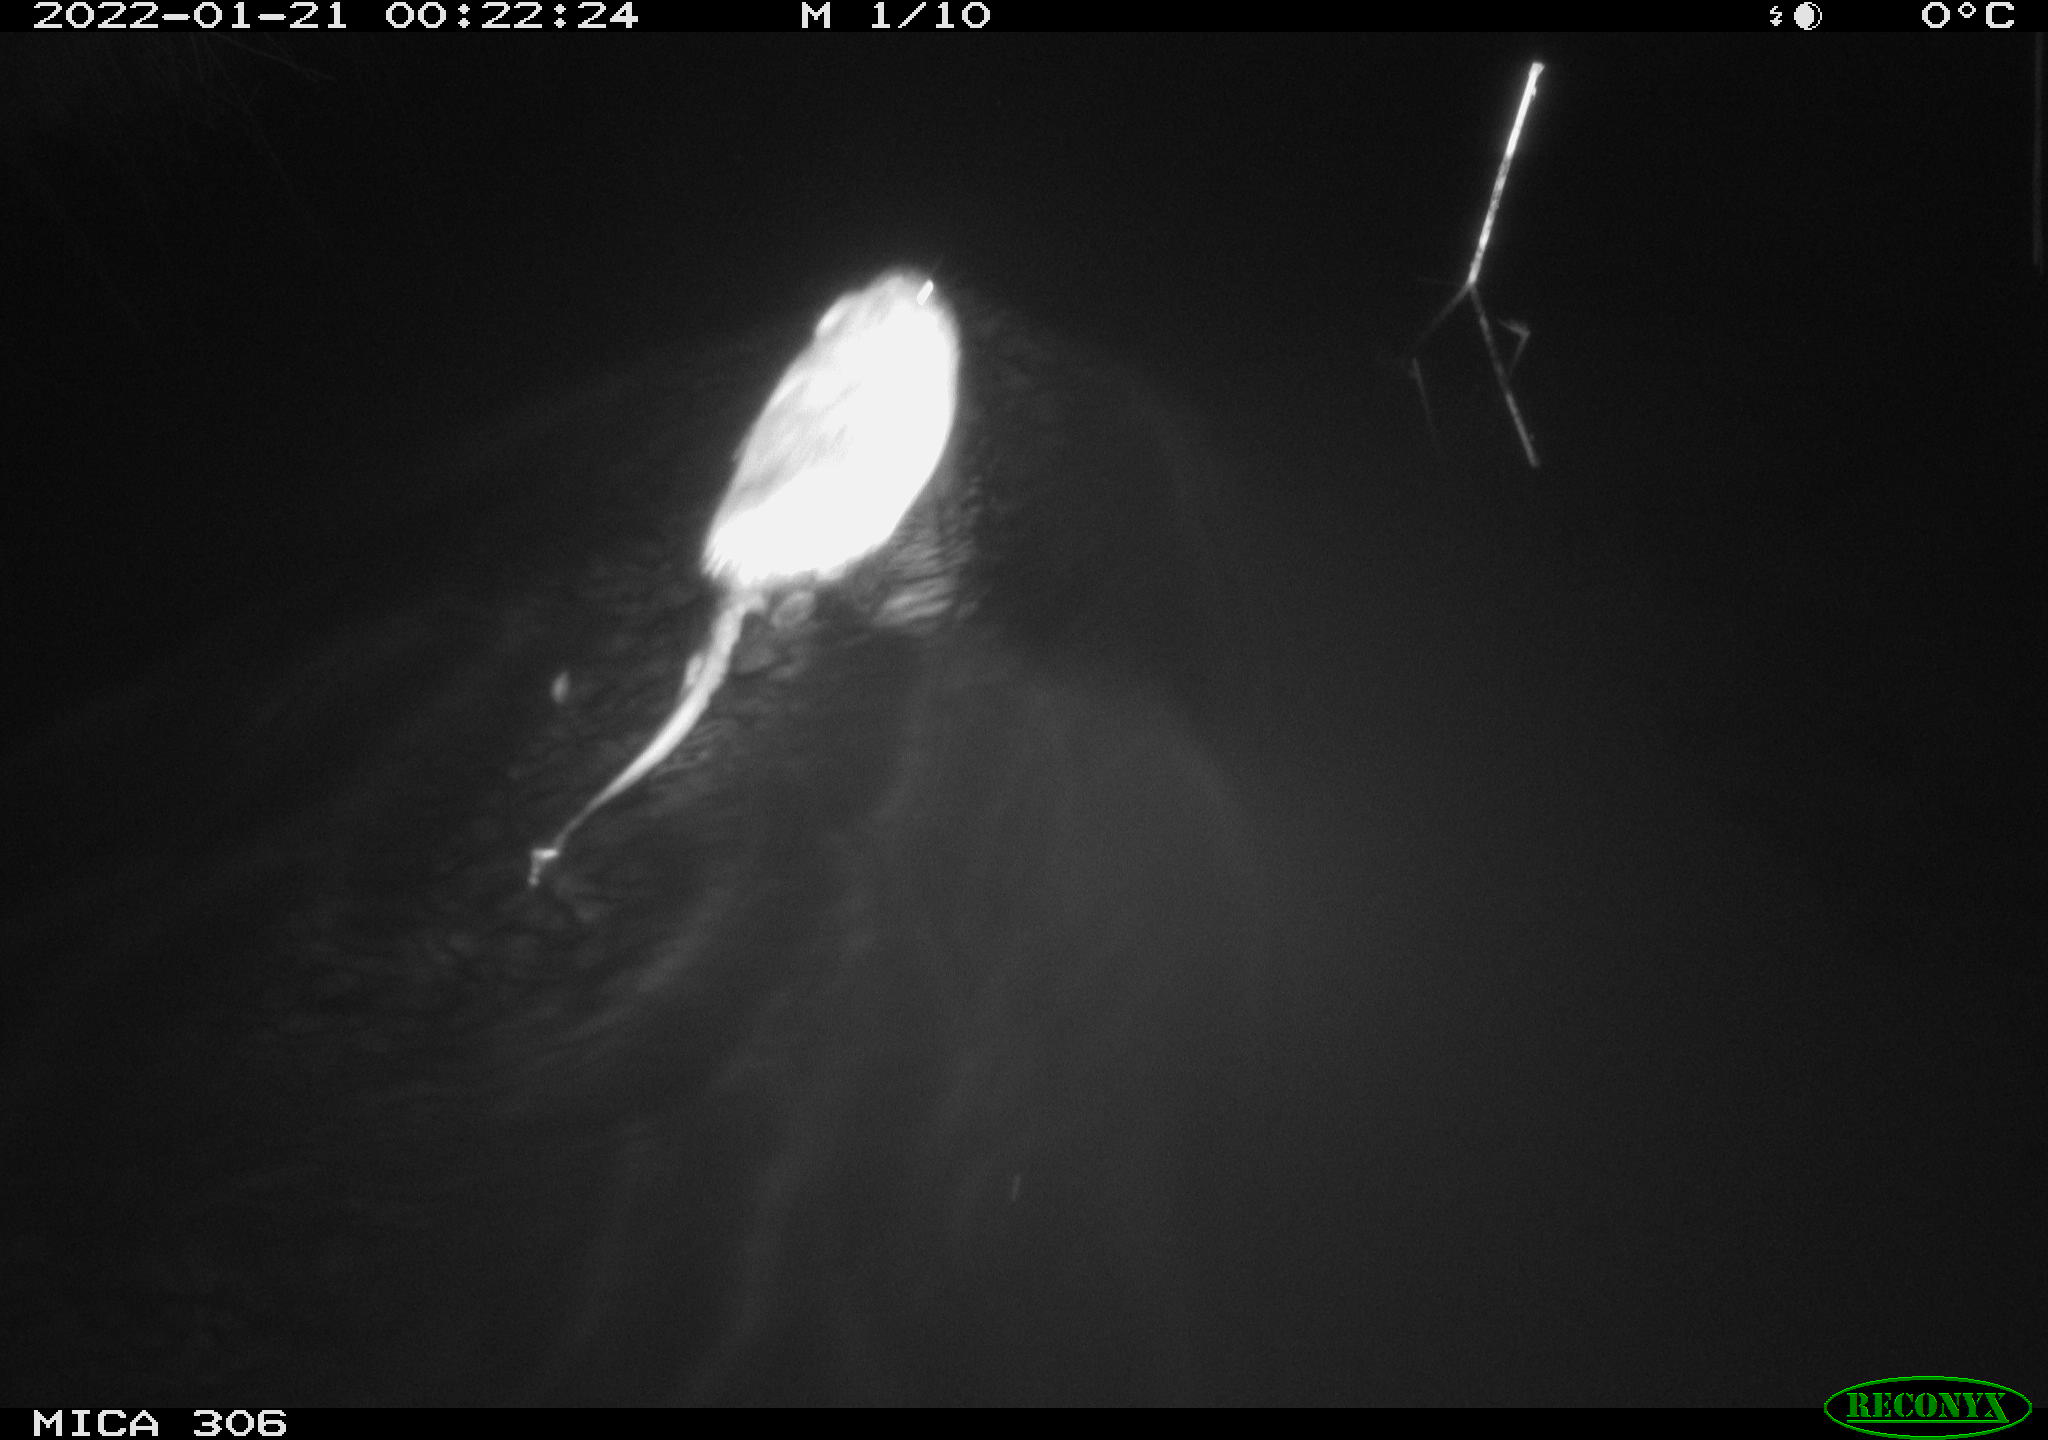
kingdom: Animalia
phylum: Chordata
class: Mammalia
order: Rodentia
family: Cricetidae
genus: Ondatra
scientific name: Ondatra zibethicus
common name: Muskrat
